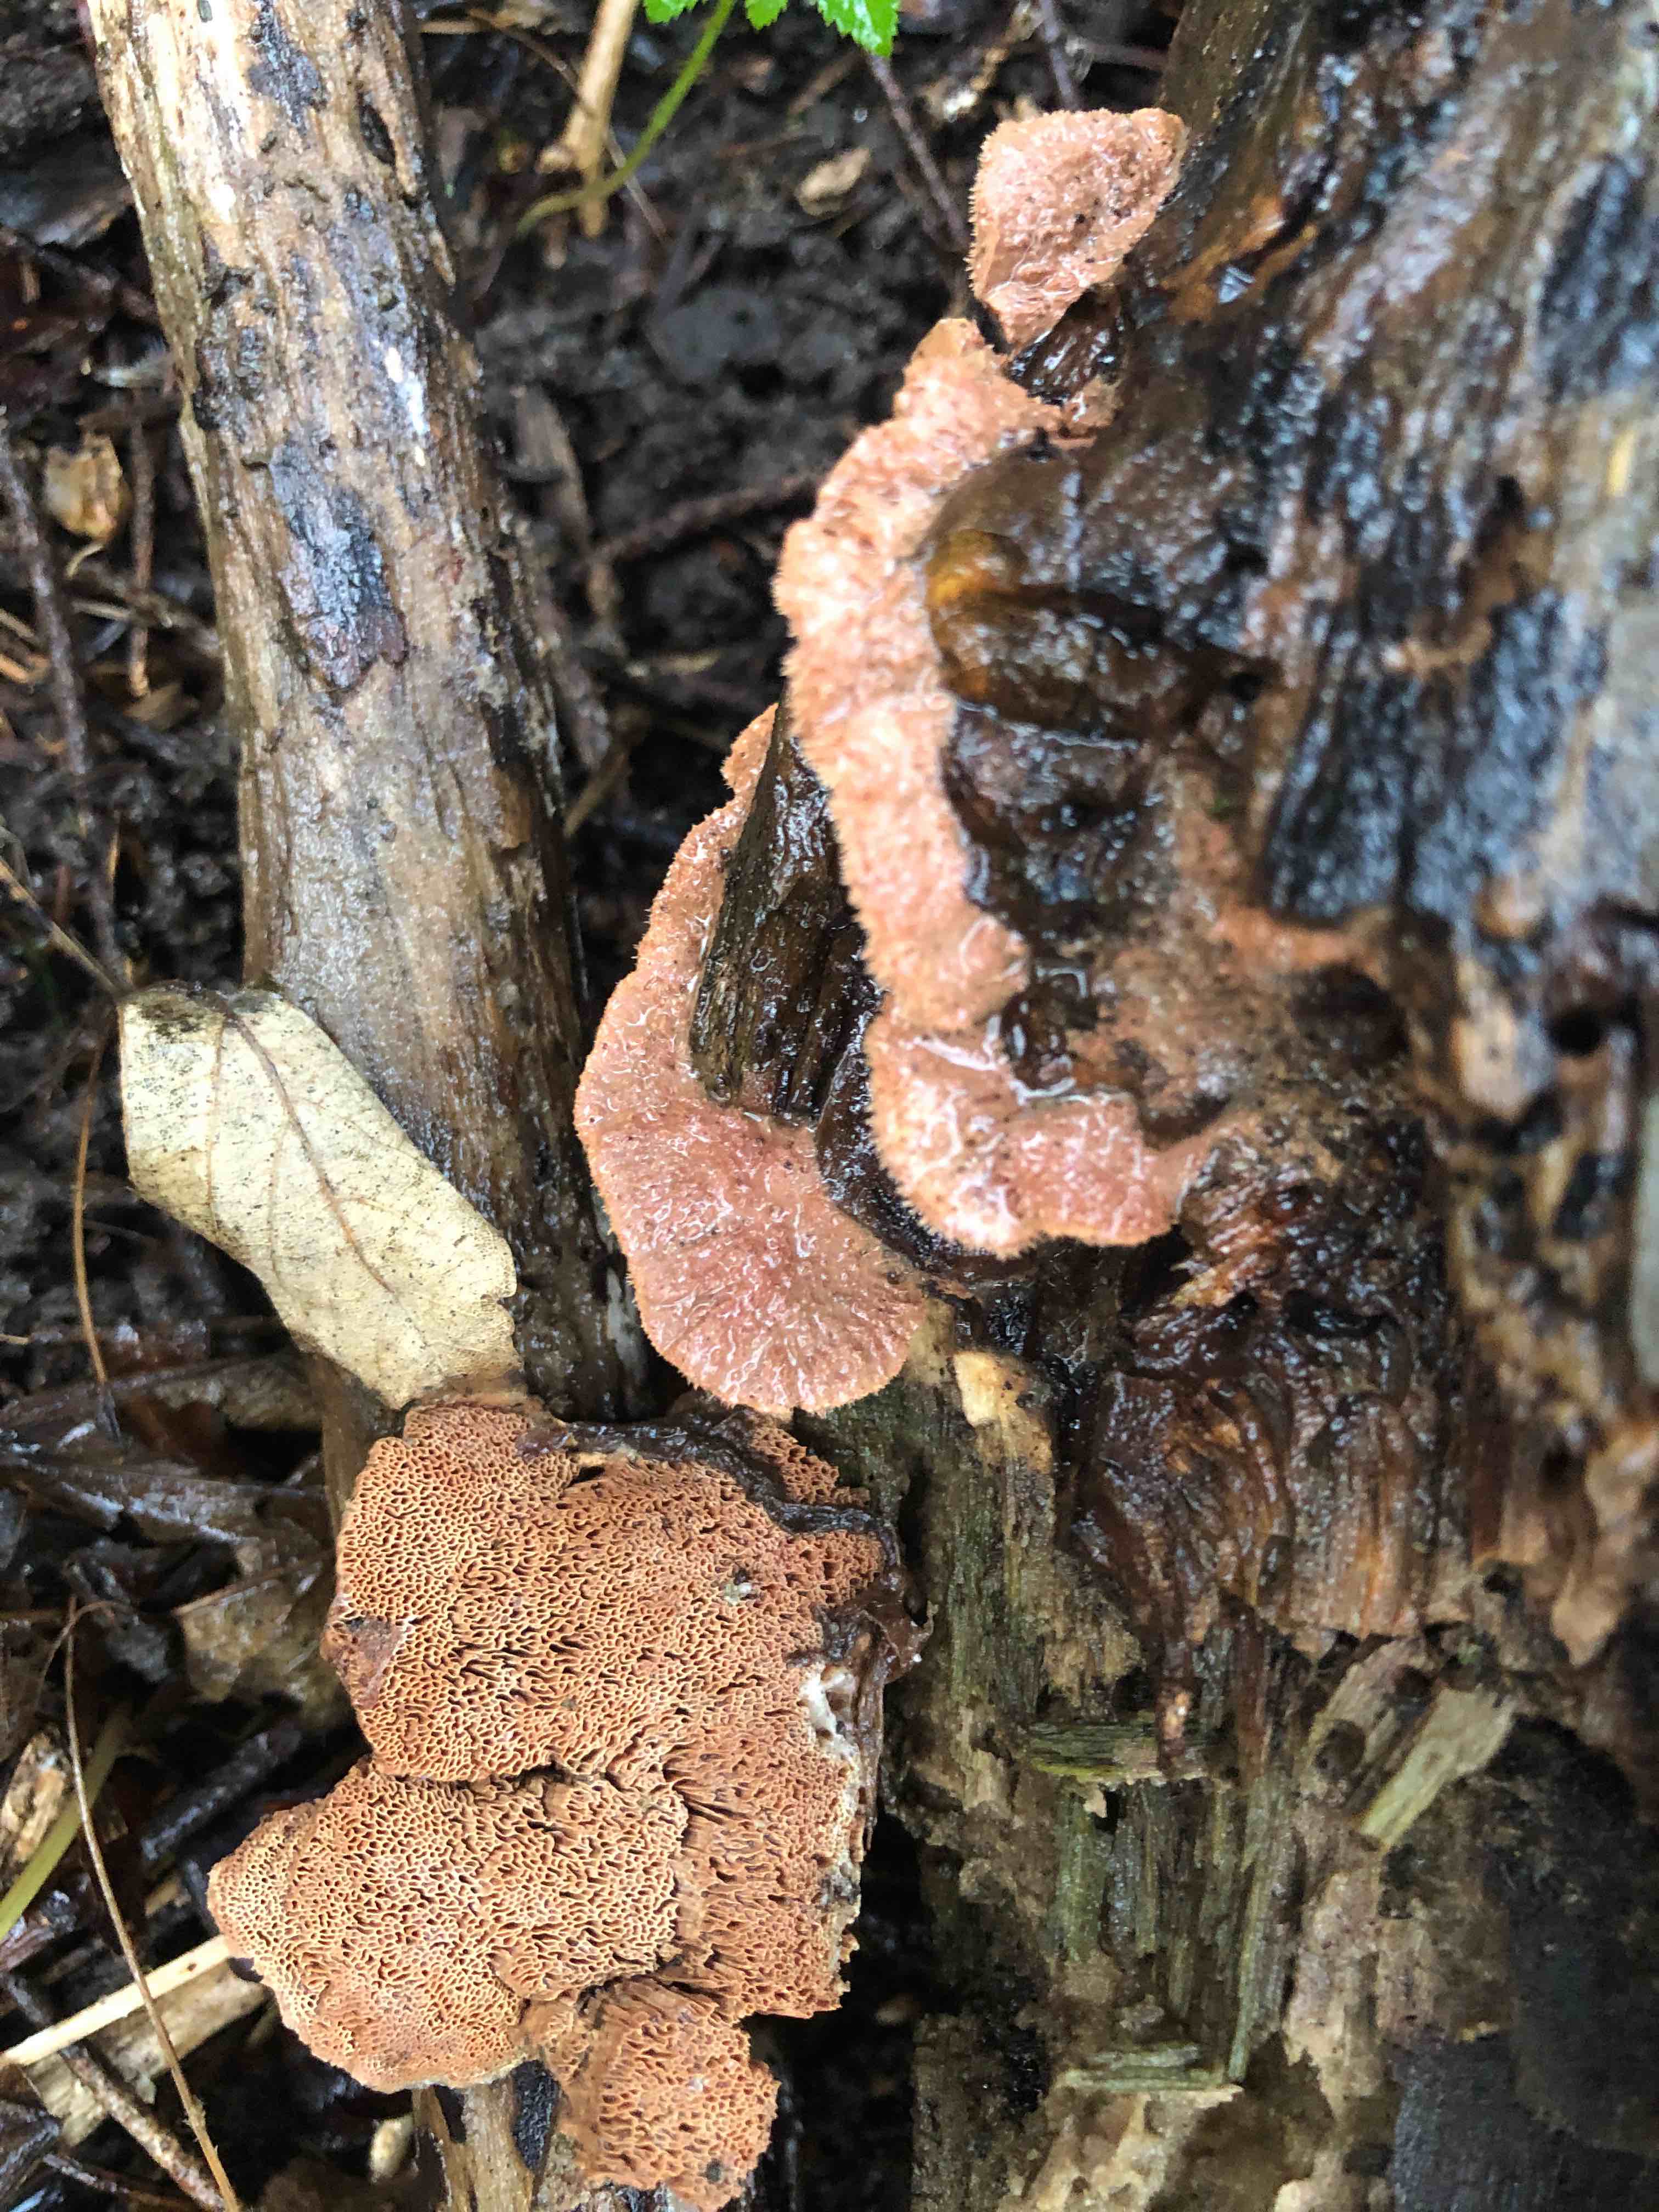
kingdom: Fungi
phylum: Basidiomycota
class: Agaricomycetes
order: Polyporales
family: Phanerochaetaceae
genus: Hapalopilus
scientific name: Hapalopilus rutilans
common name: rødlig okkerporesvamp
